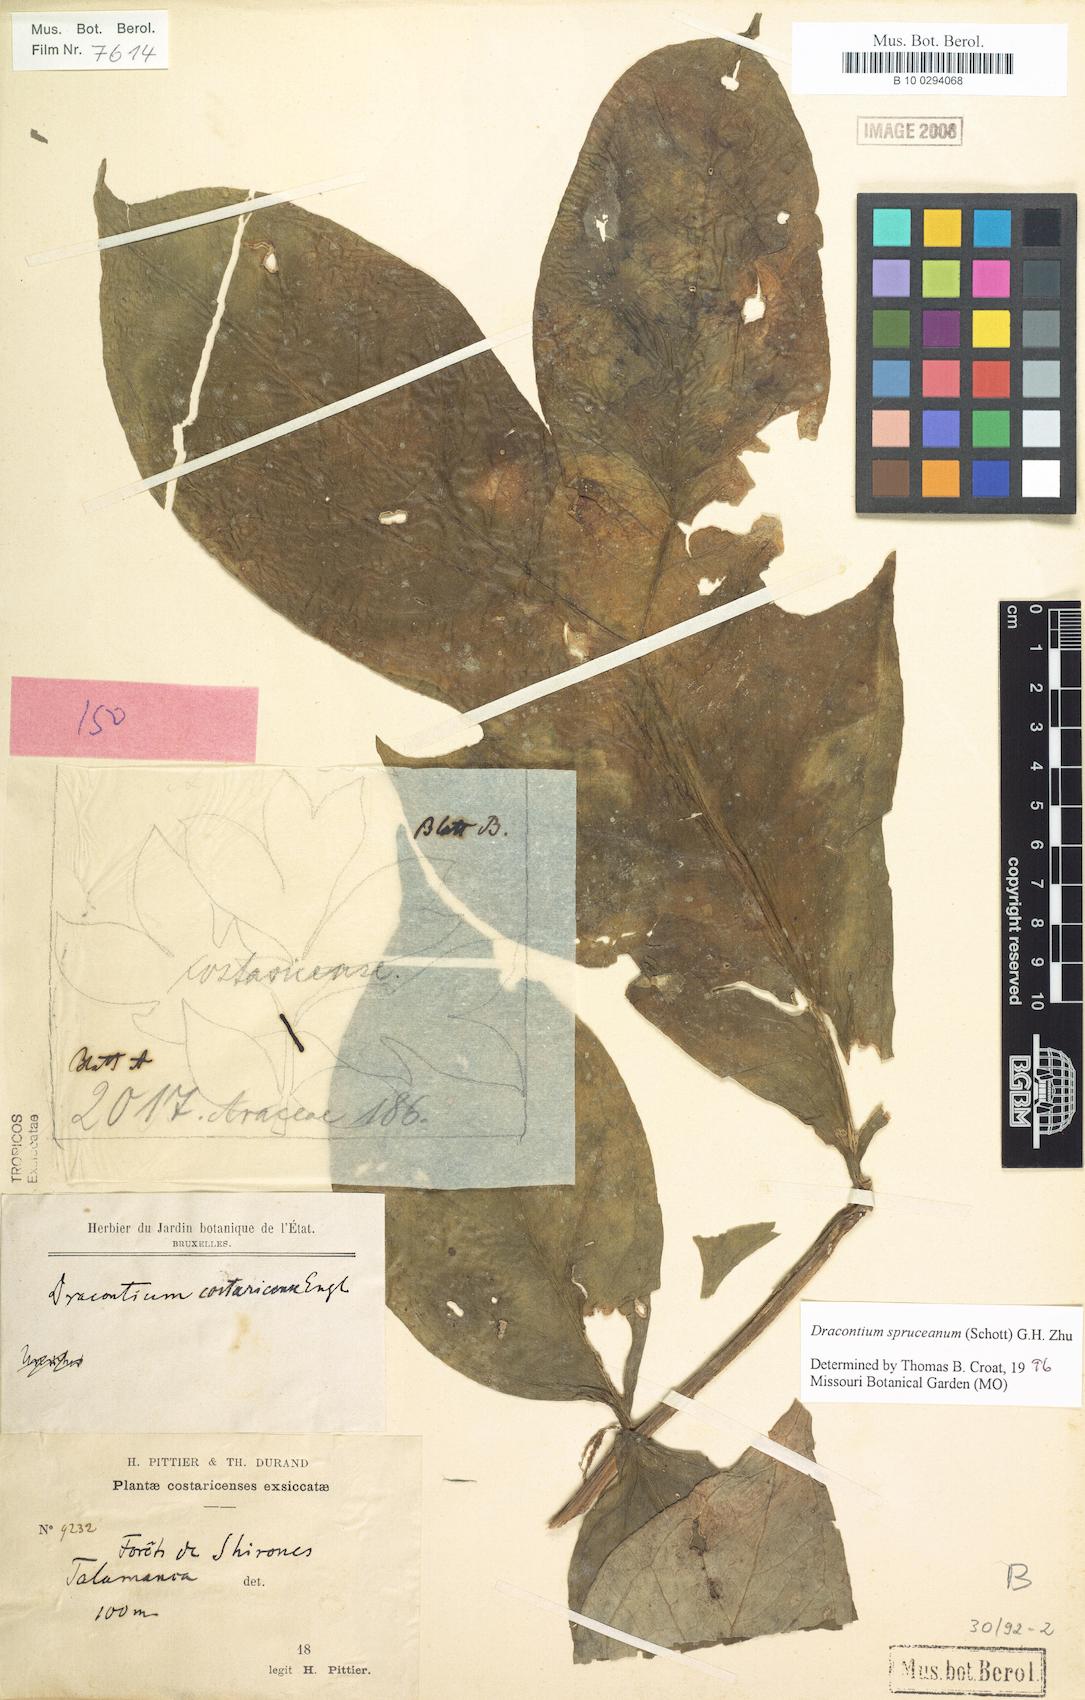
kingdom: Plantae
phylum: Tracheophyta
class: Liliopsida
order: Alismatales
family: Araceae
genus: Dracontium
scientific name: Dracontium spruceanum
